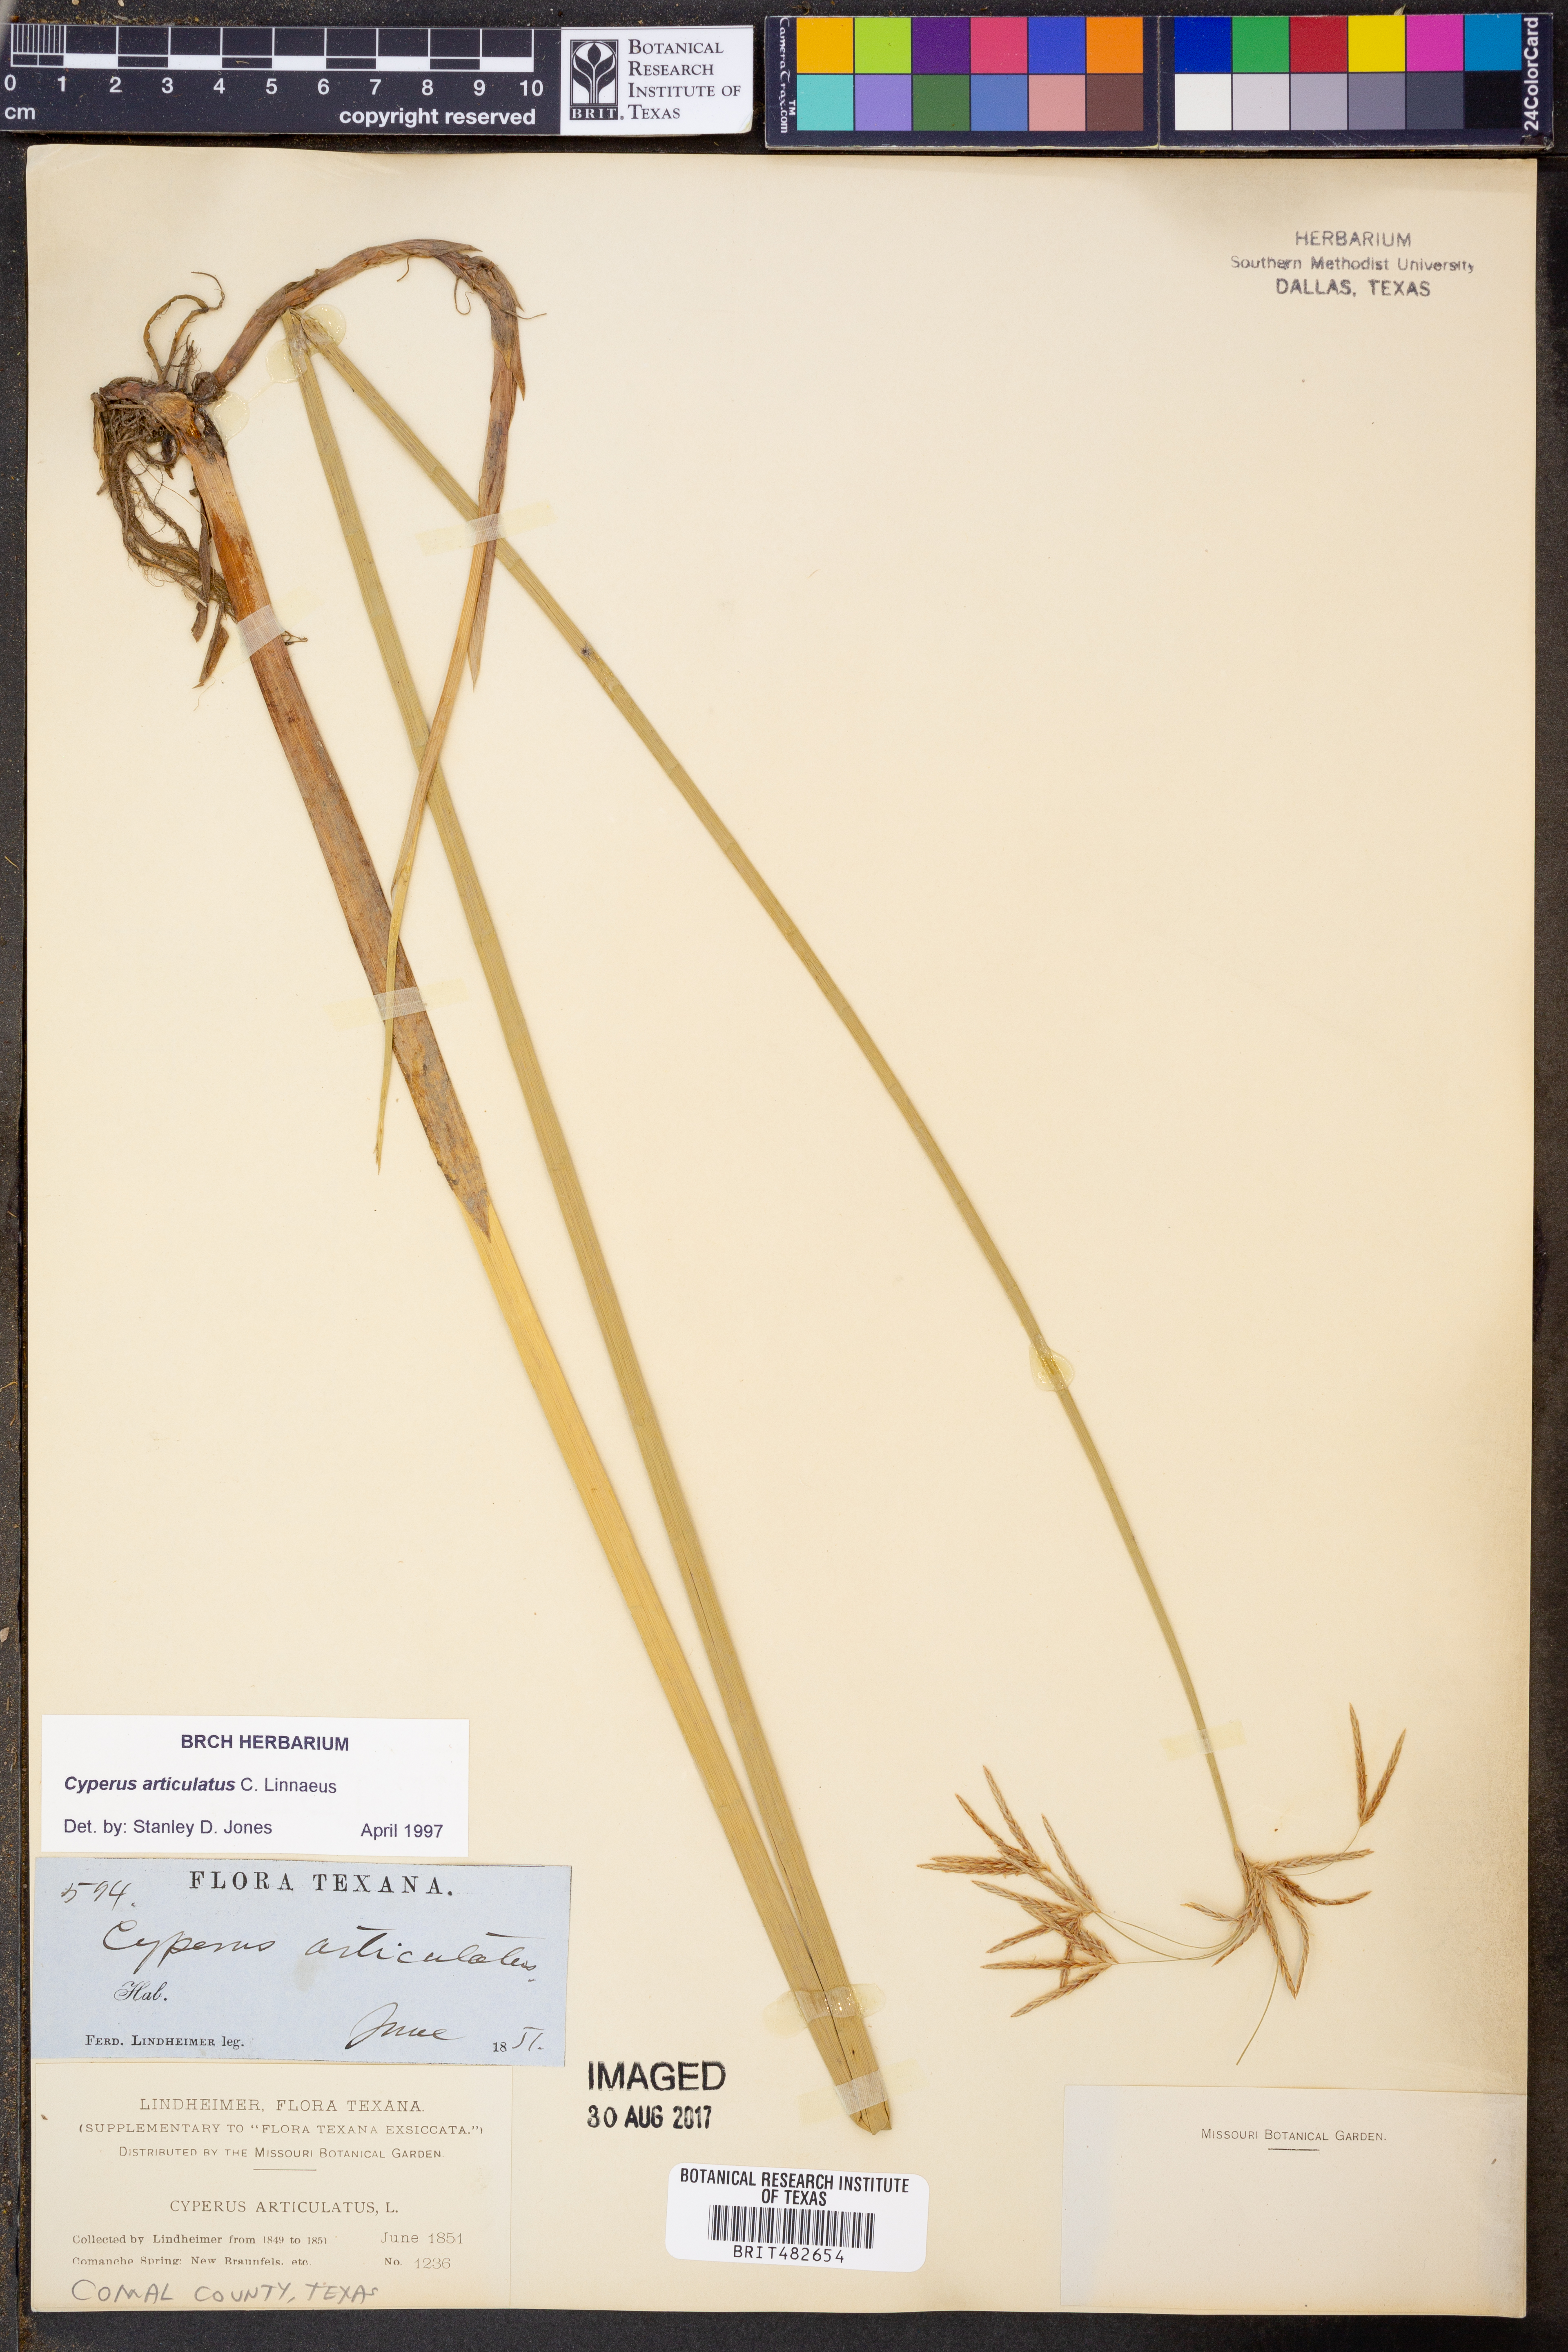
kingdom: Plantae
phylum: Tracheophyta
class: Liliopsida
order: Poales
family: Cyperaceae
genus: Cyperus
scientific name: Cyperus articulatus
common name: Jointed flatsedge
